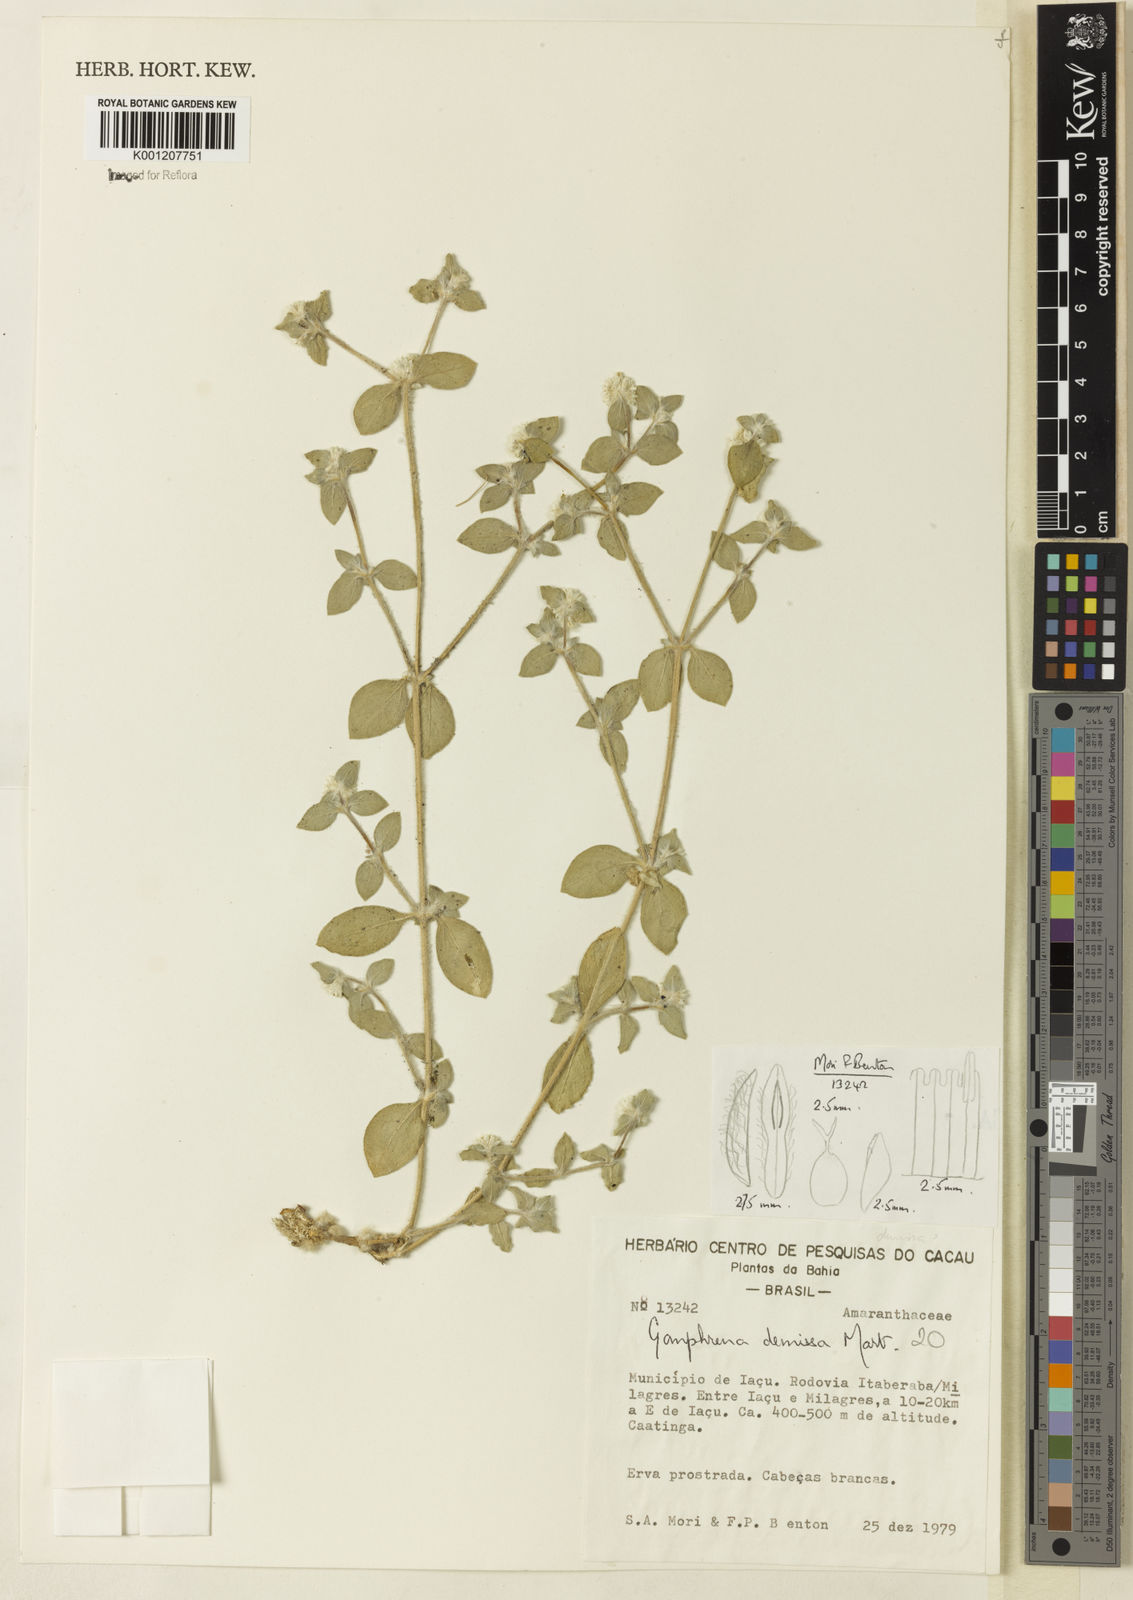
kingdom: Plantae
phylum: Tracheophyta
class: Magnoliopsida
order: Caryophyllales
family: Amaranthaceae
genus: Gomphrena
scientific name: Gomphrena demissa
